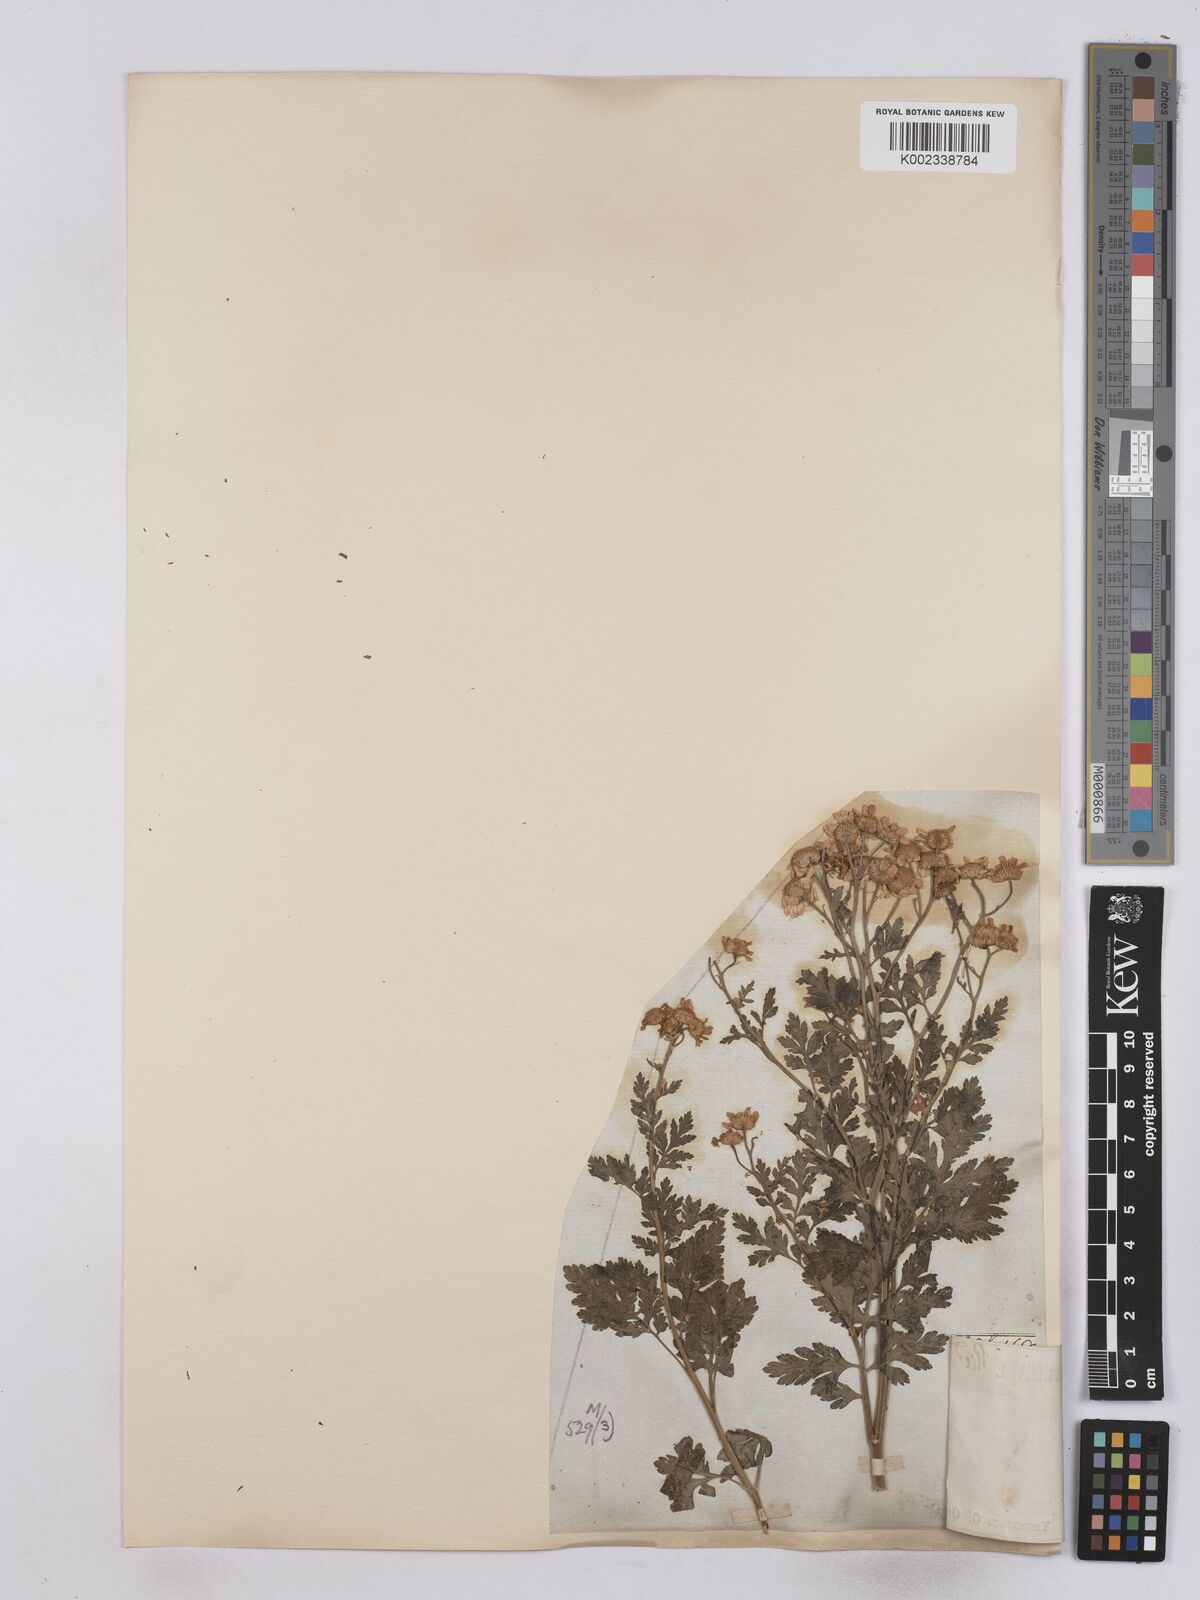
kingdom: Plantae
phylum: Tracheophyta
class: Magnoliopsida
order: Asterales
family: Asteraceae
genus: Tanacetum
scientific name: Tanacetum parthenium
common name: Feverfew
